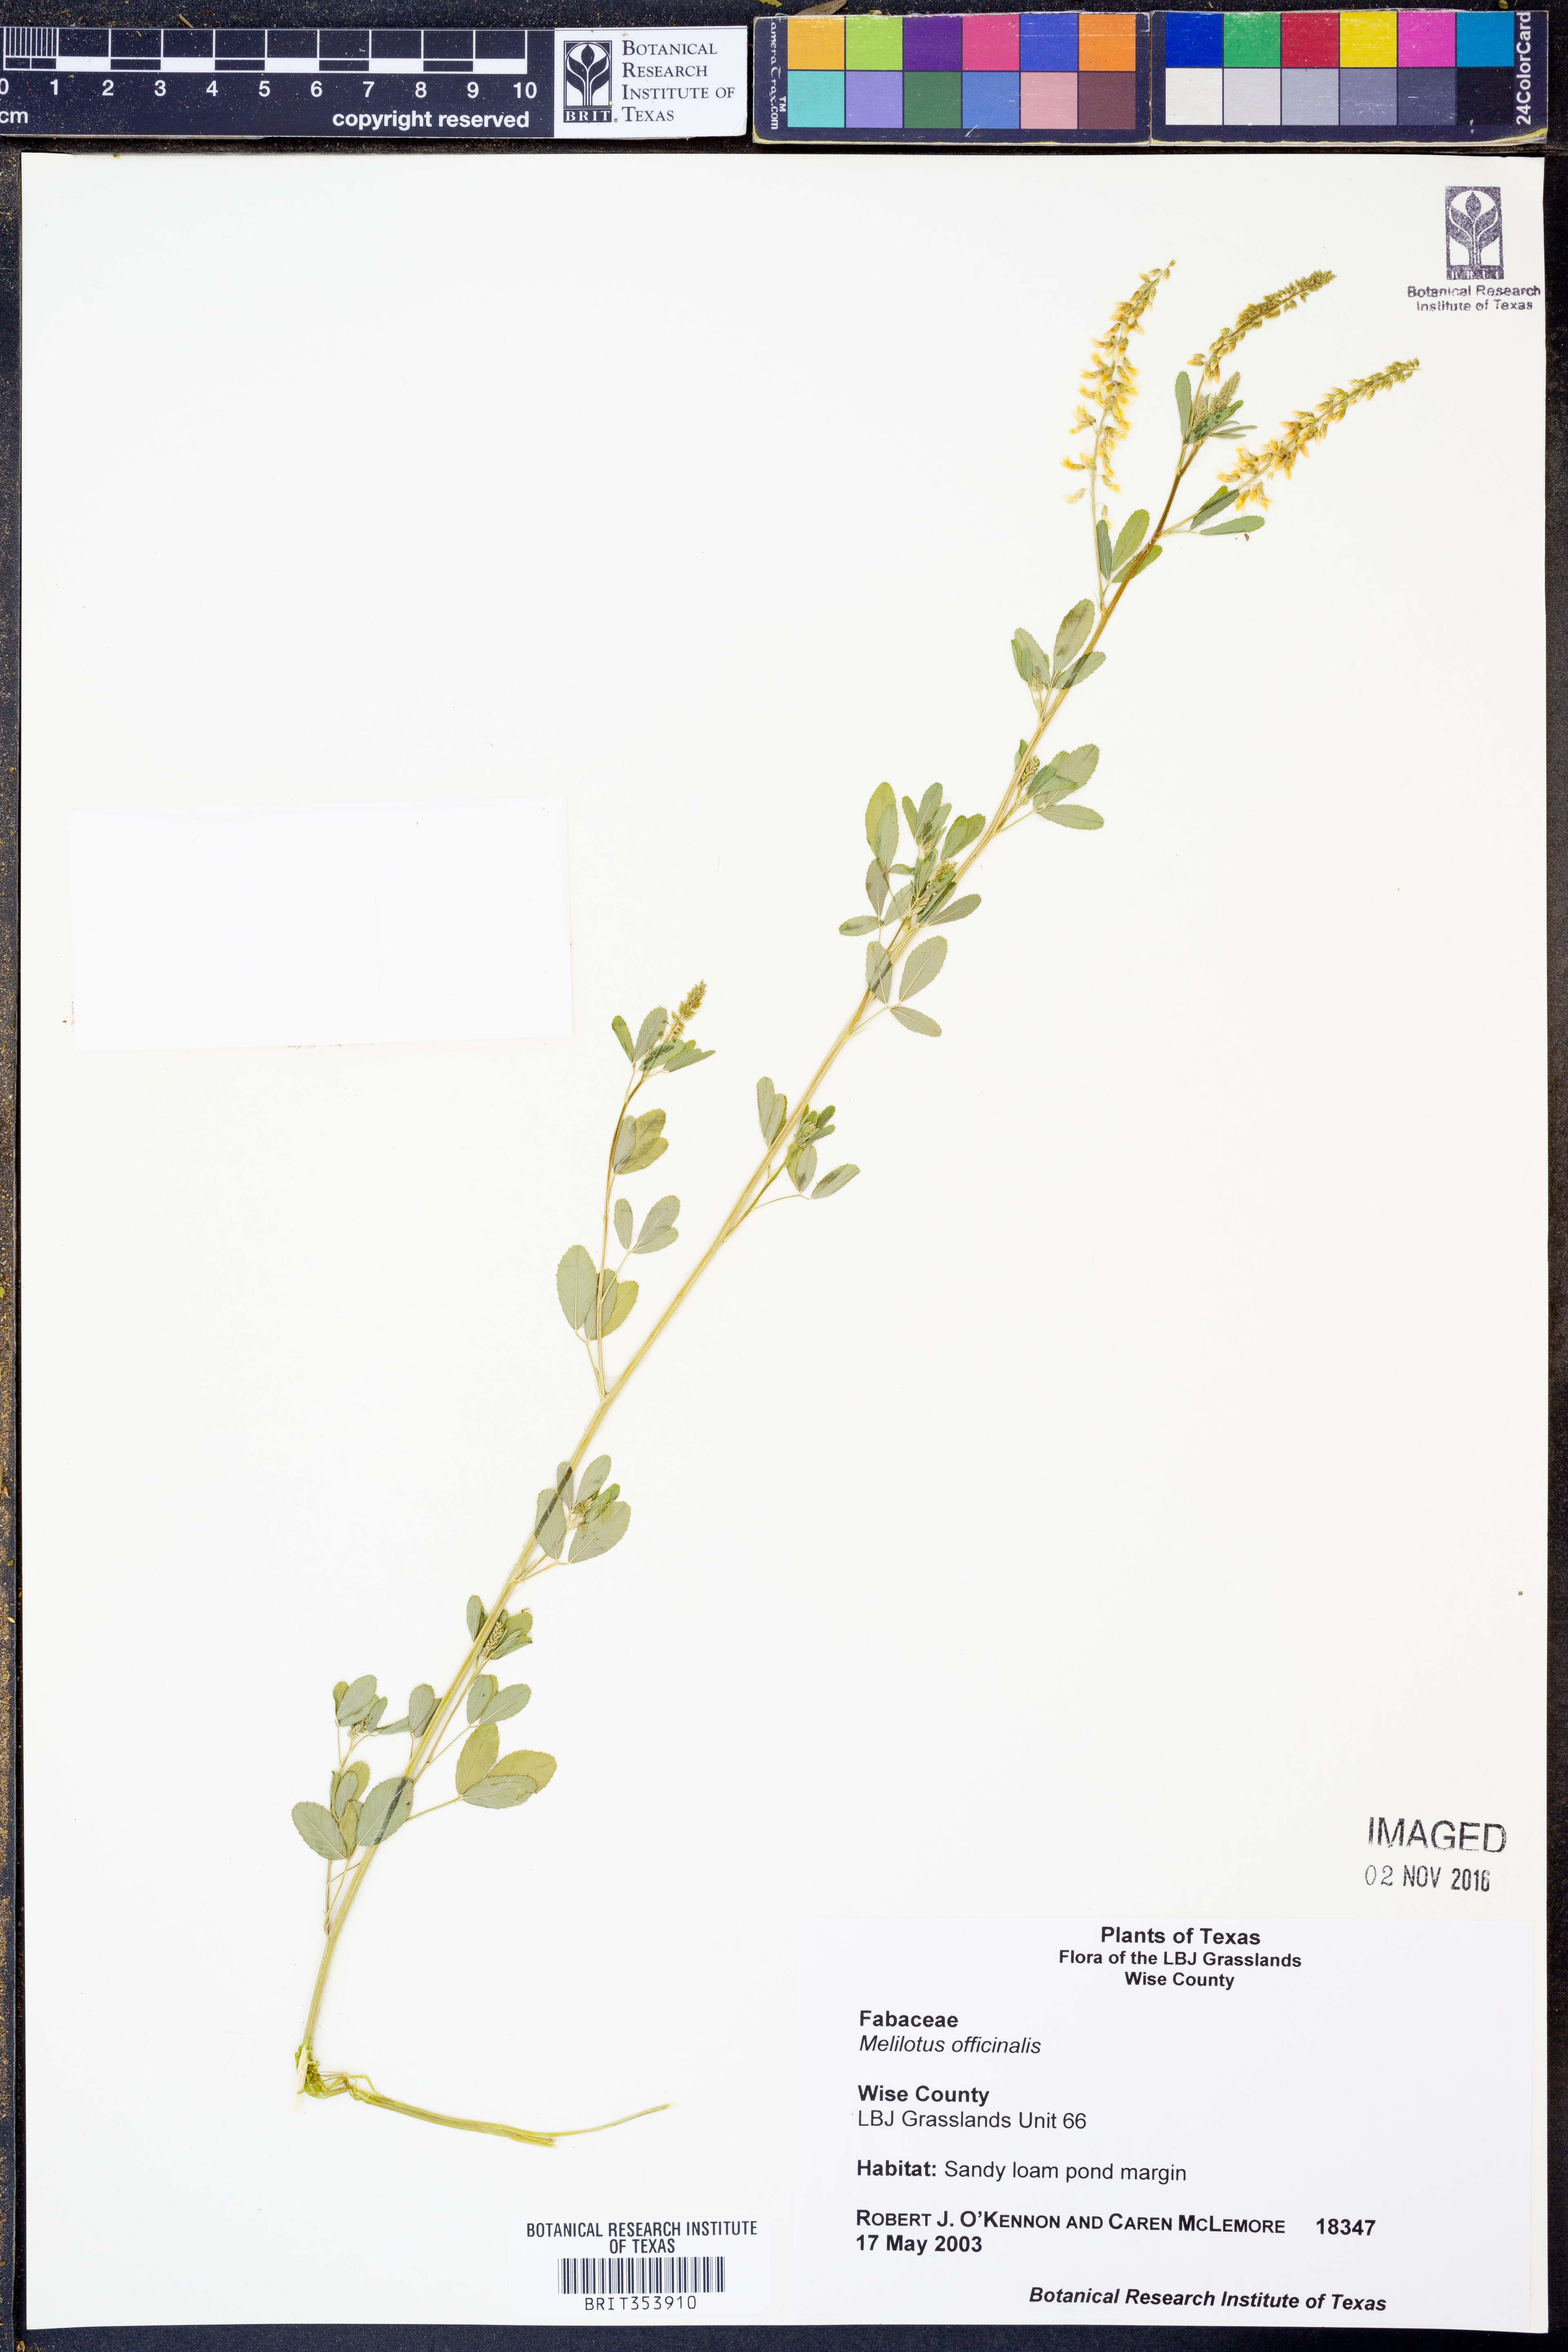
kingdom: Plantae
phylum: Tracheophyta
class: Magnoliopsida
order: Fabales
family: Fabaceae
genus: Melilotus
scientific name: Melilotus officinalis
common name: Sweetclover
